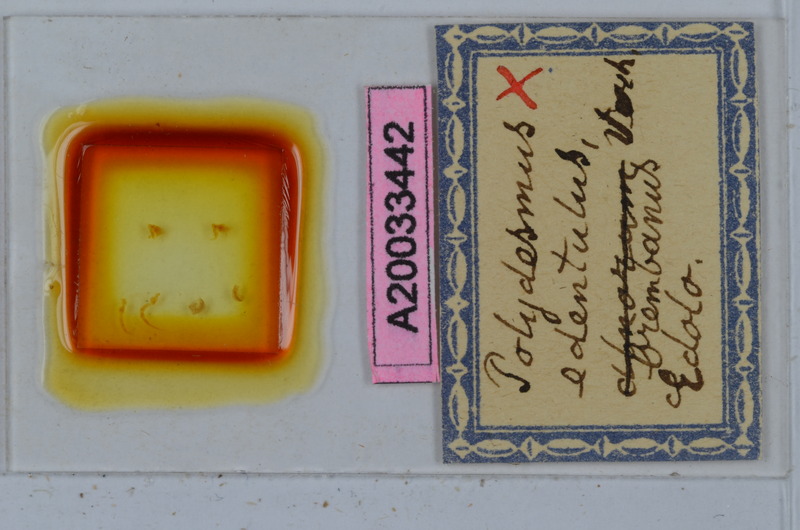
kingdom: Animalia
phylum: Arthropoda
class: Diplopoda
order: Polydesmida
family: Polydesmidae
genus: Polydesmus
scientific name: Polydesmus edentulus
